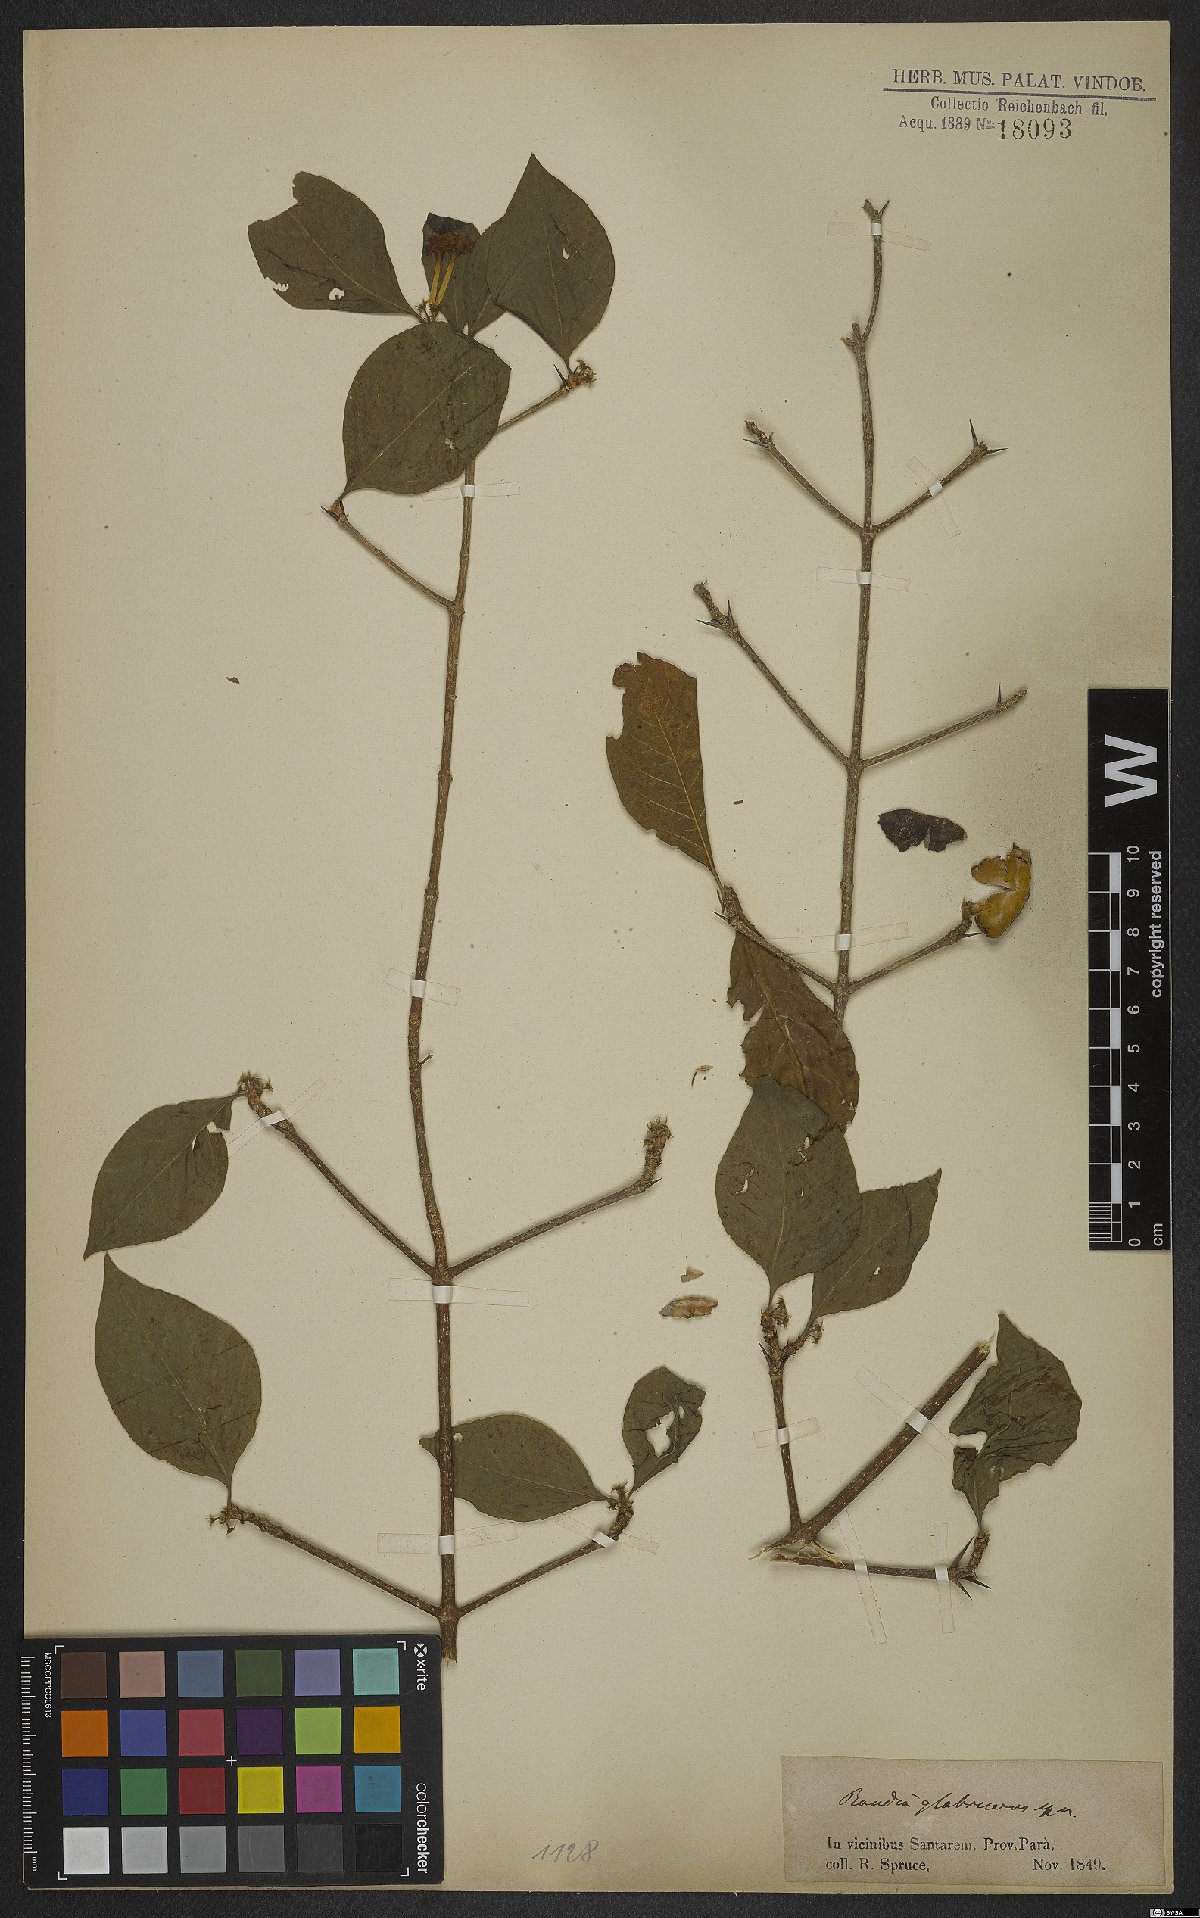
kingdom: Plantae
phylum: Tracheophyta
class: Magnoliopsida
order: Gentianales
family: Rubiaceae
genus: Randia
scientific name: Randia armata
